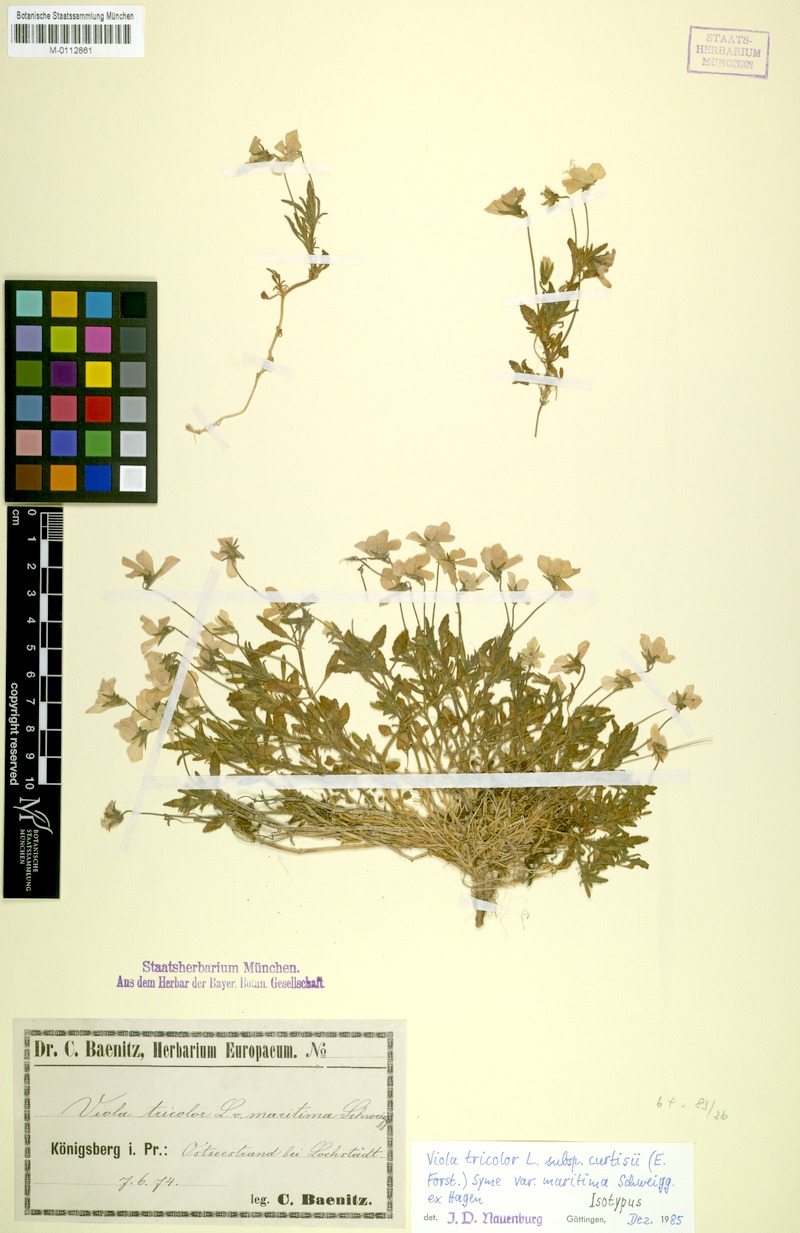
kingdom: Plantae
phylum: Tracheophyta
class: Magnoliopsida
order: Malpighiales
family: Violaceae
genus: Viola
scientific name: Viola tricolor
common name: Pansy
